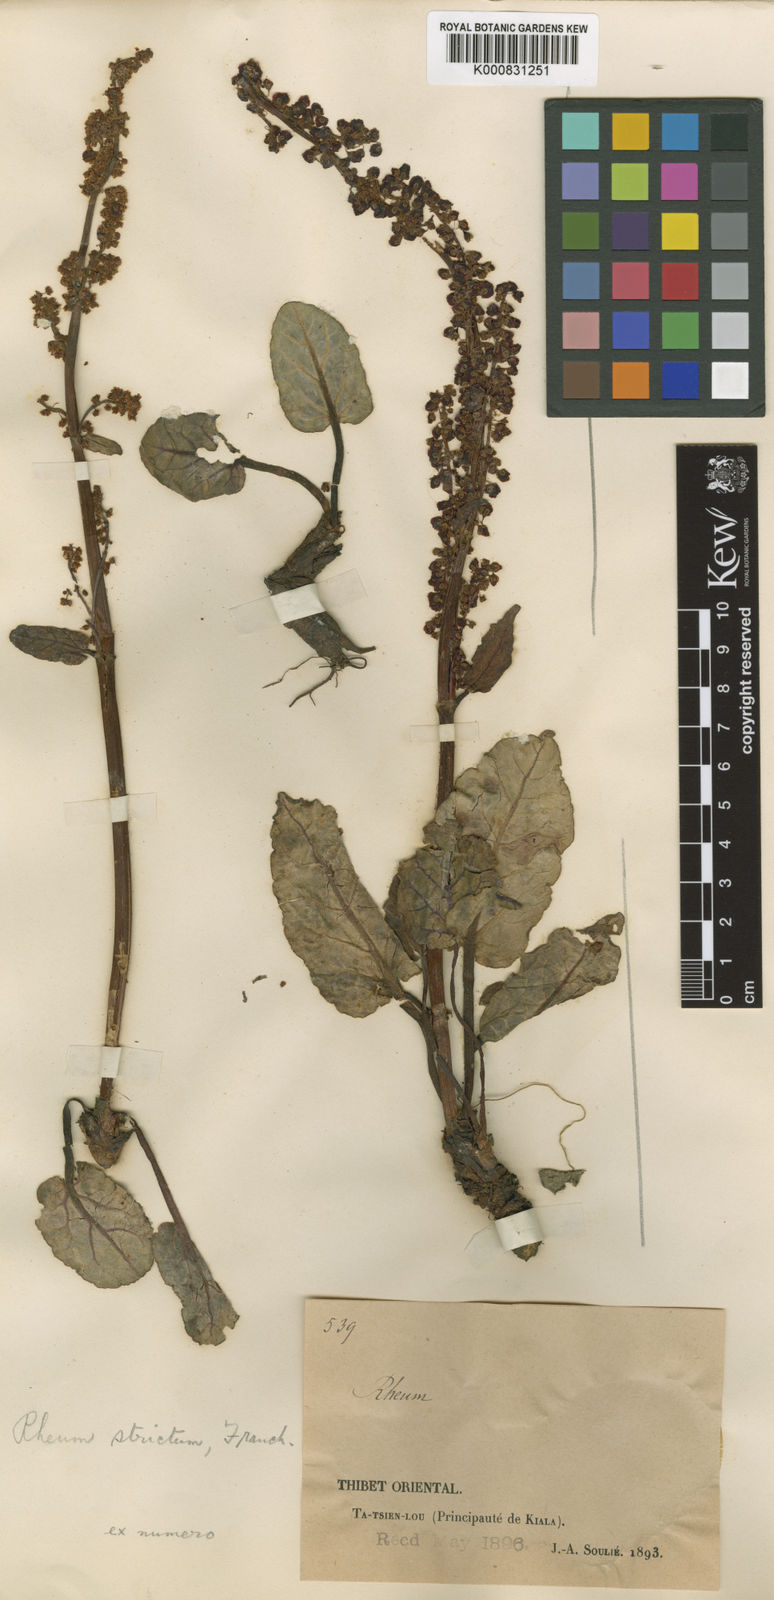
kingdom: Plantae
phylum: Tracheophyta
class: Magnoliopsida
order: Caryophyllales
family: Polygonaceae
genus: Rheum
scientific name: Rheum delavayi
